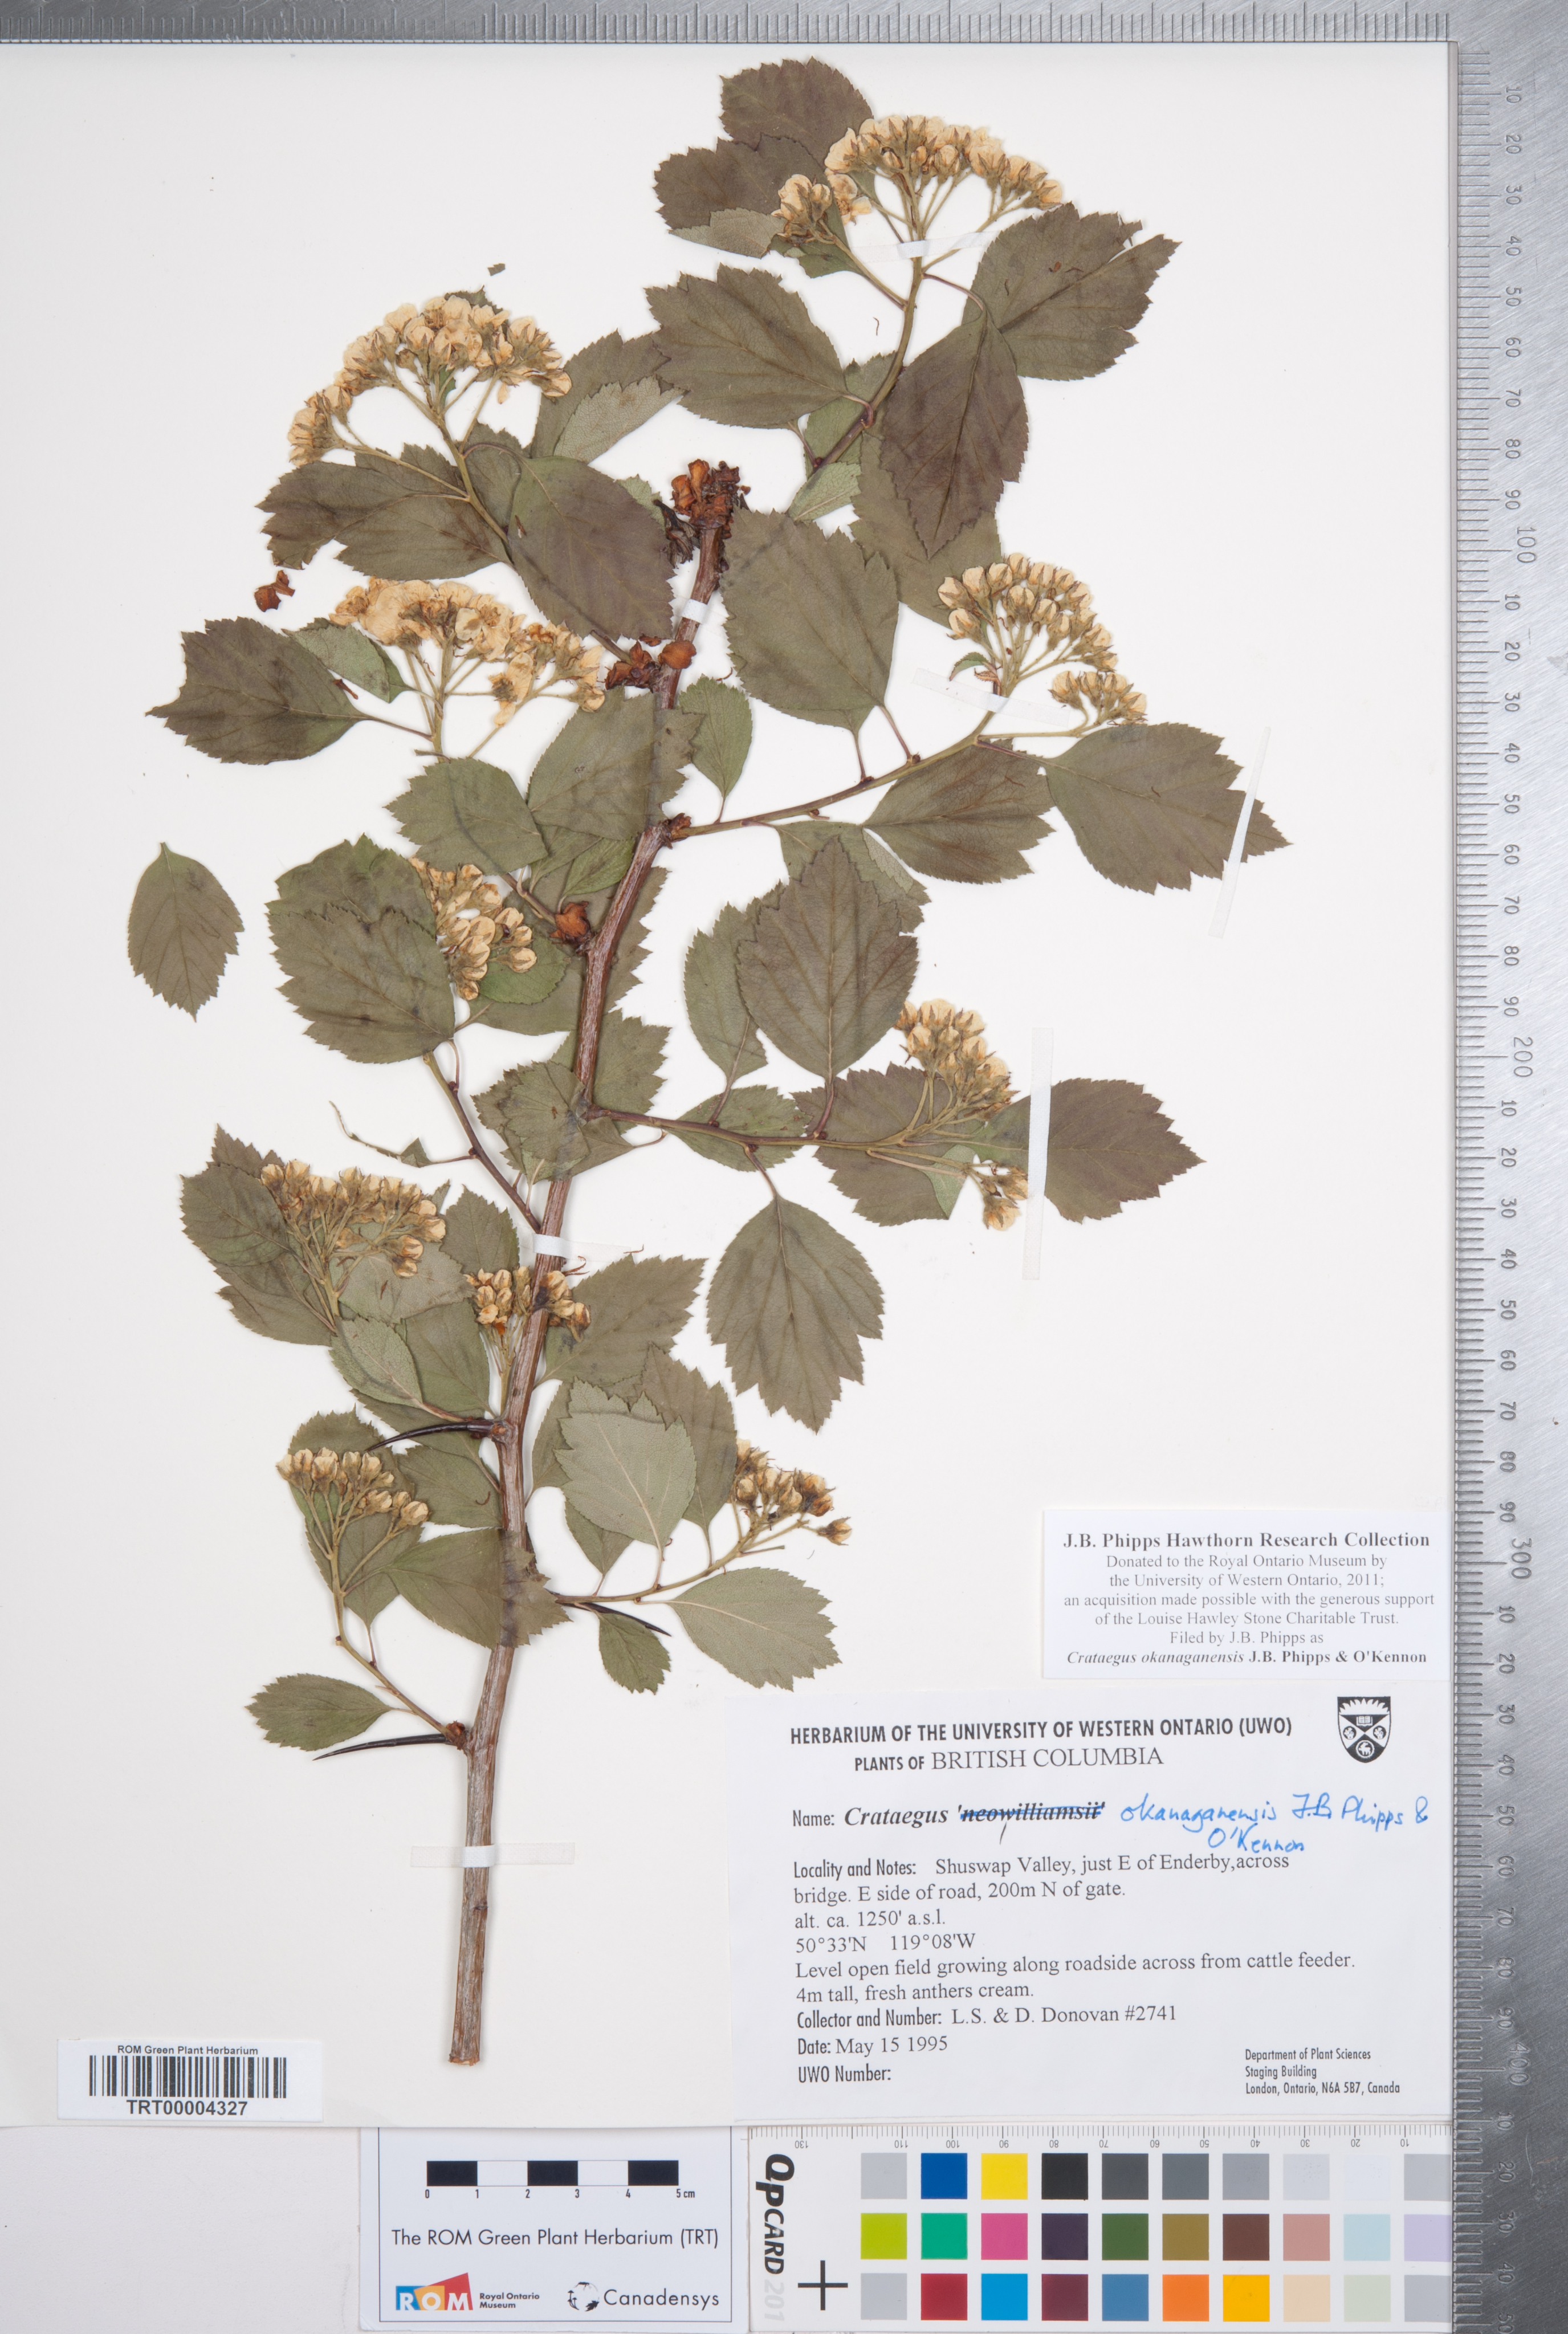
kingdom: Plantae
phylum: Tracheophyta
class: Magnoliopsida
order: Rosales
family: Rosaceae
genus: Crataegus
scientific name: Crataegus okanaganensis
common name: Okanagan valley hawthorn
